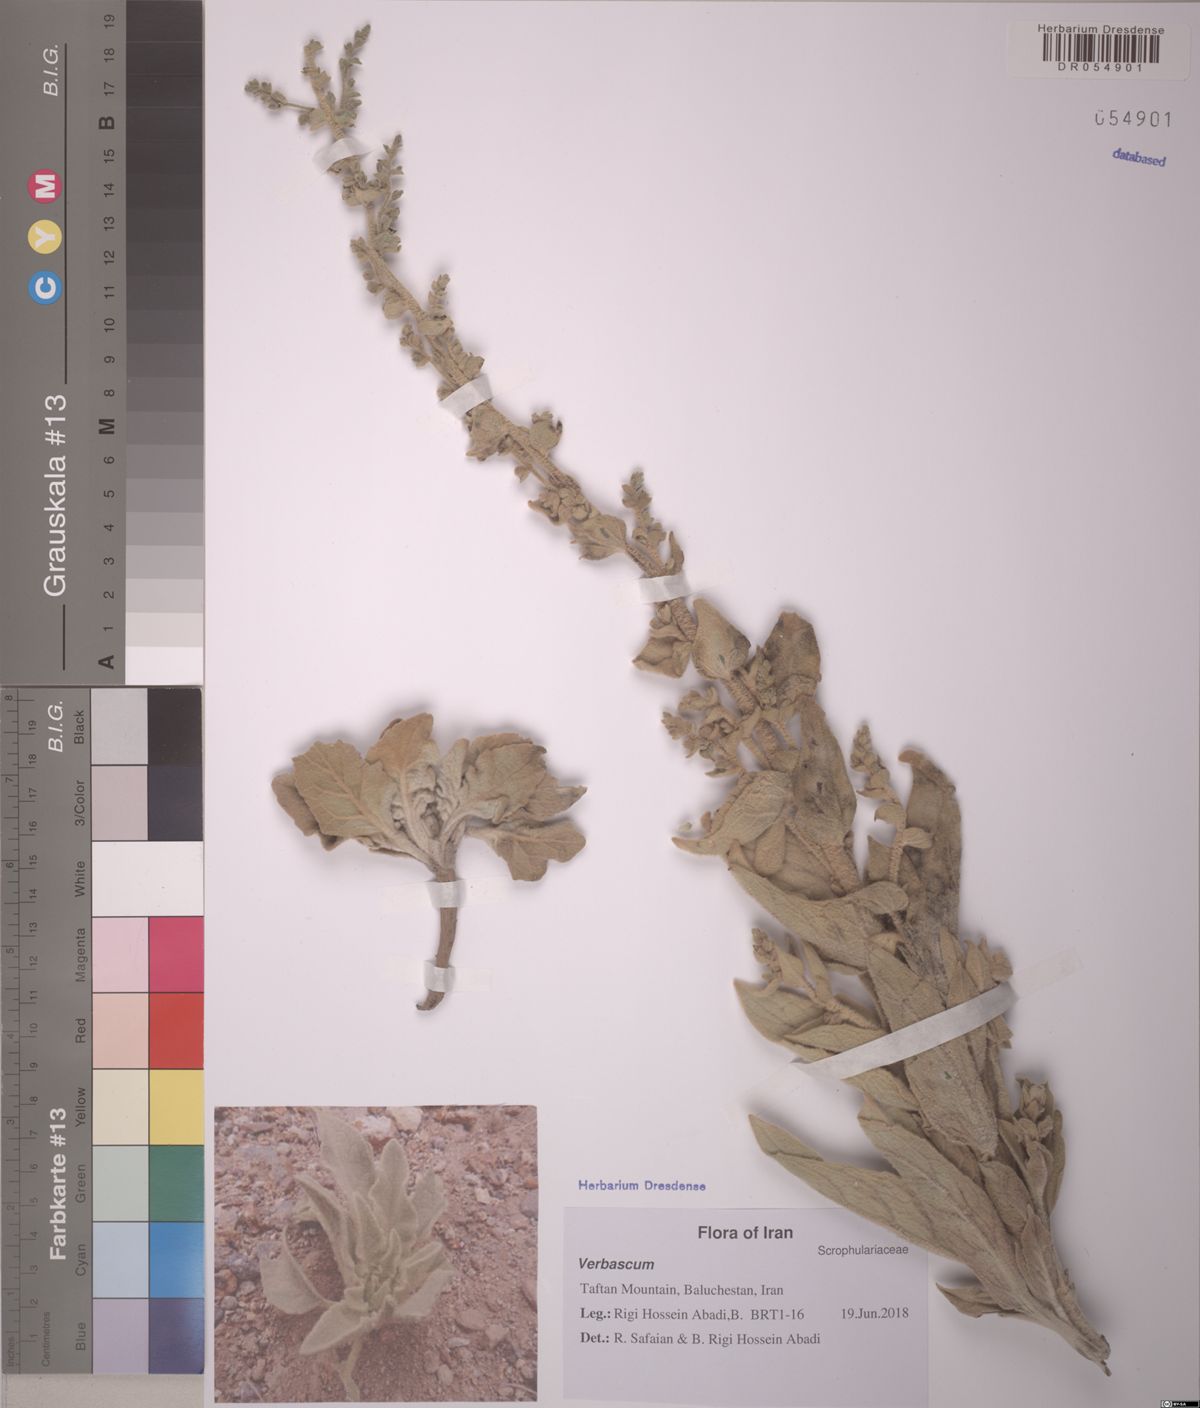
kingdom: Plantae
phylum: Tracheophyta
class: Magnoliopsida
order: Lamiales
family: Scrophulariaceae
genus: Verbascum
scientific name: Verbascum gabrieliae
